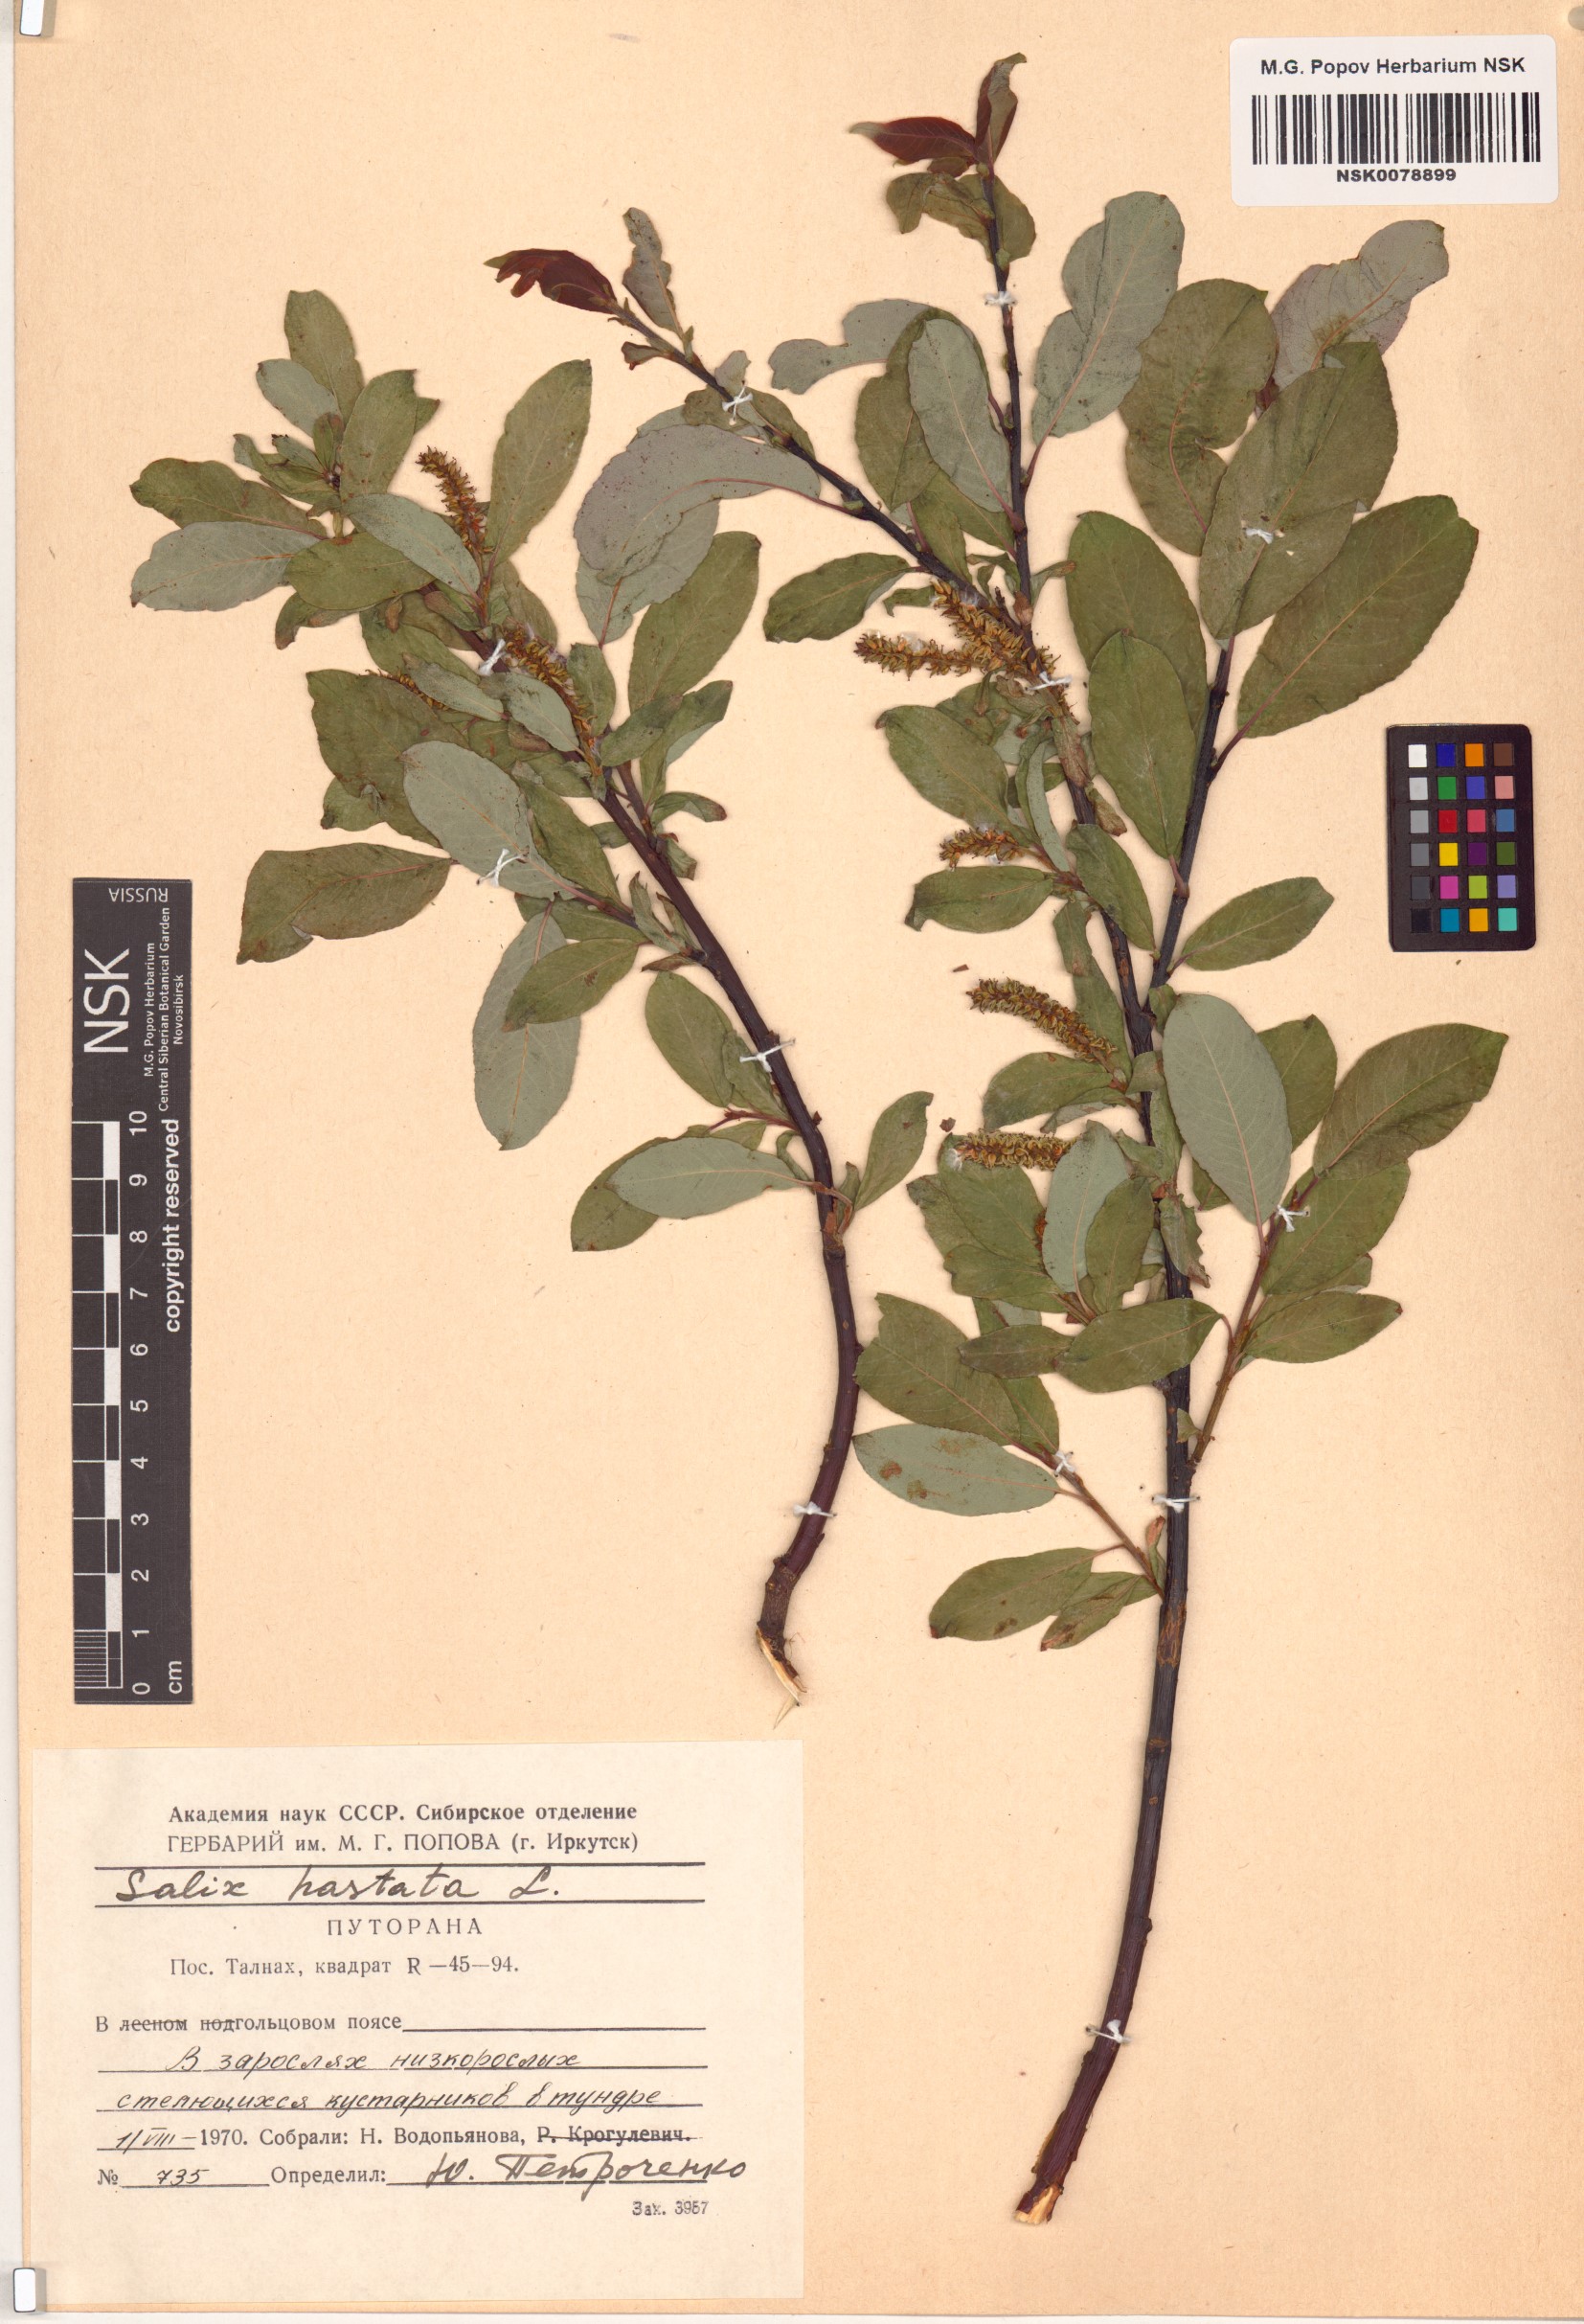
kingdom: Plantae
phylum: Tracheophyta
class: Magnoliopsida
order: Malpighiales
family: Salicaceae
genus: Salix
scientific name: Salix hastata
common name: Halberd willow
